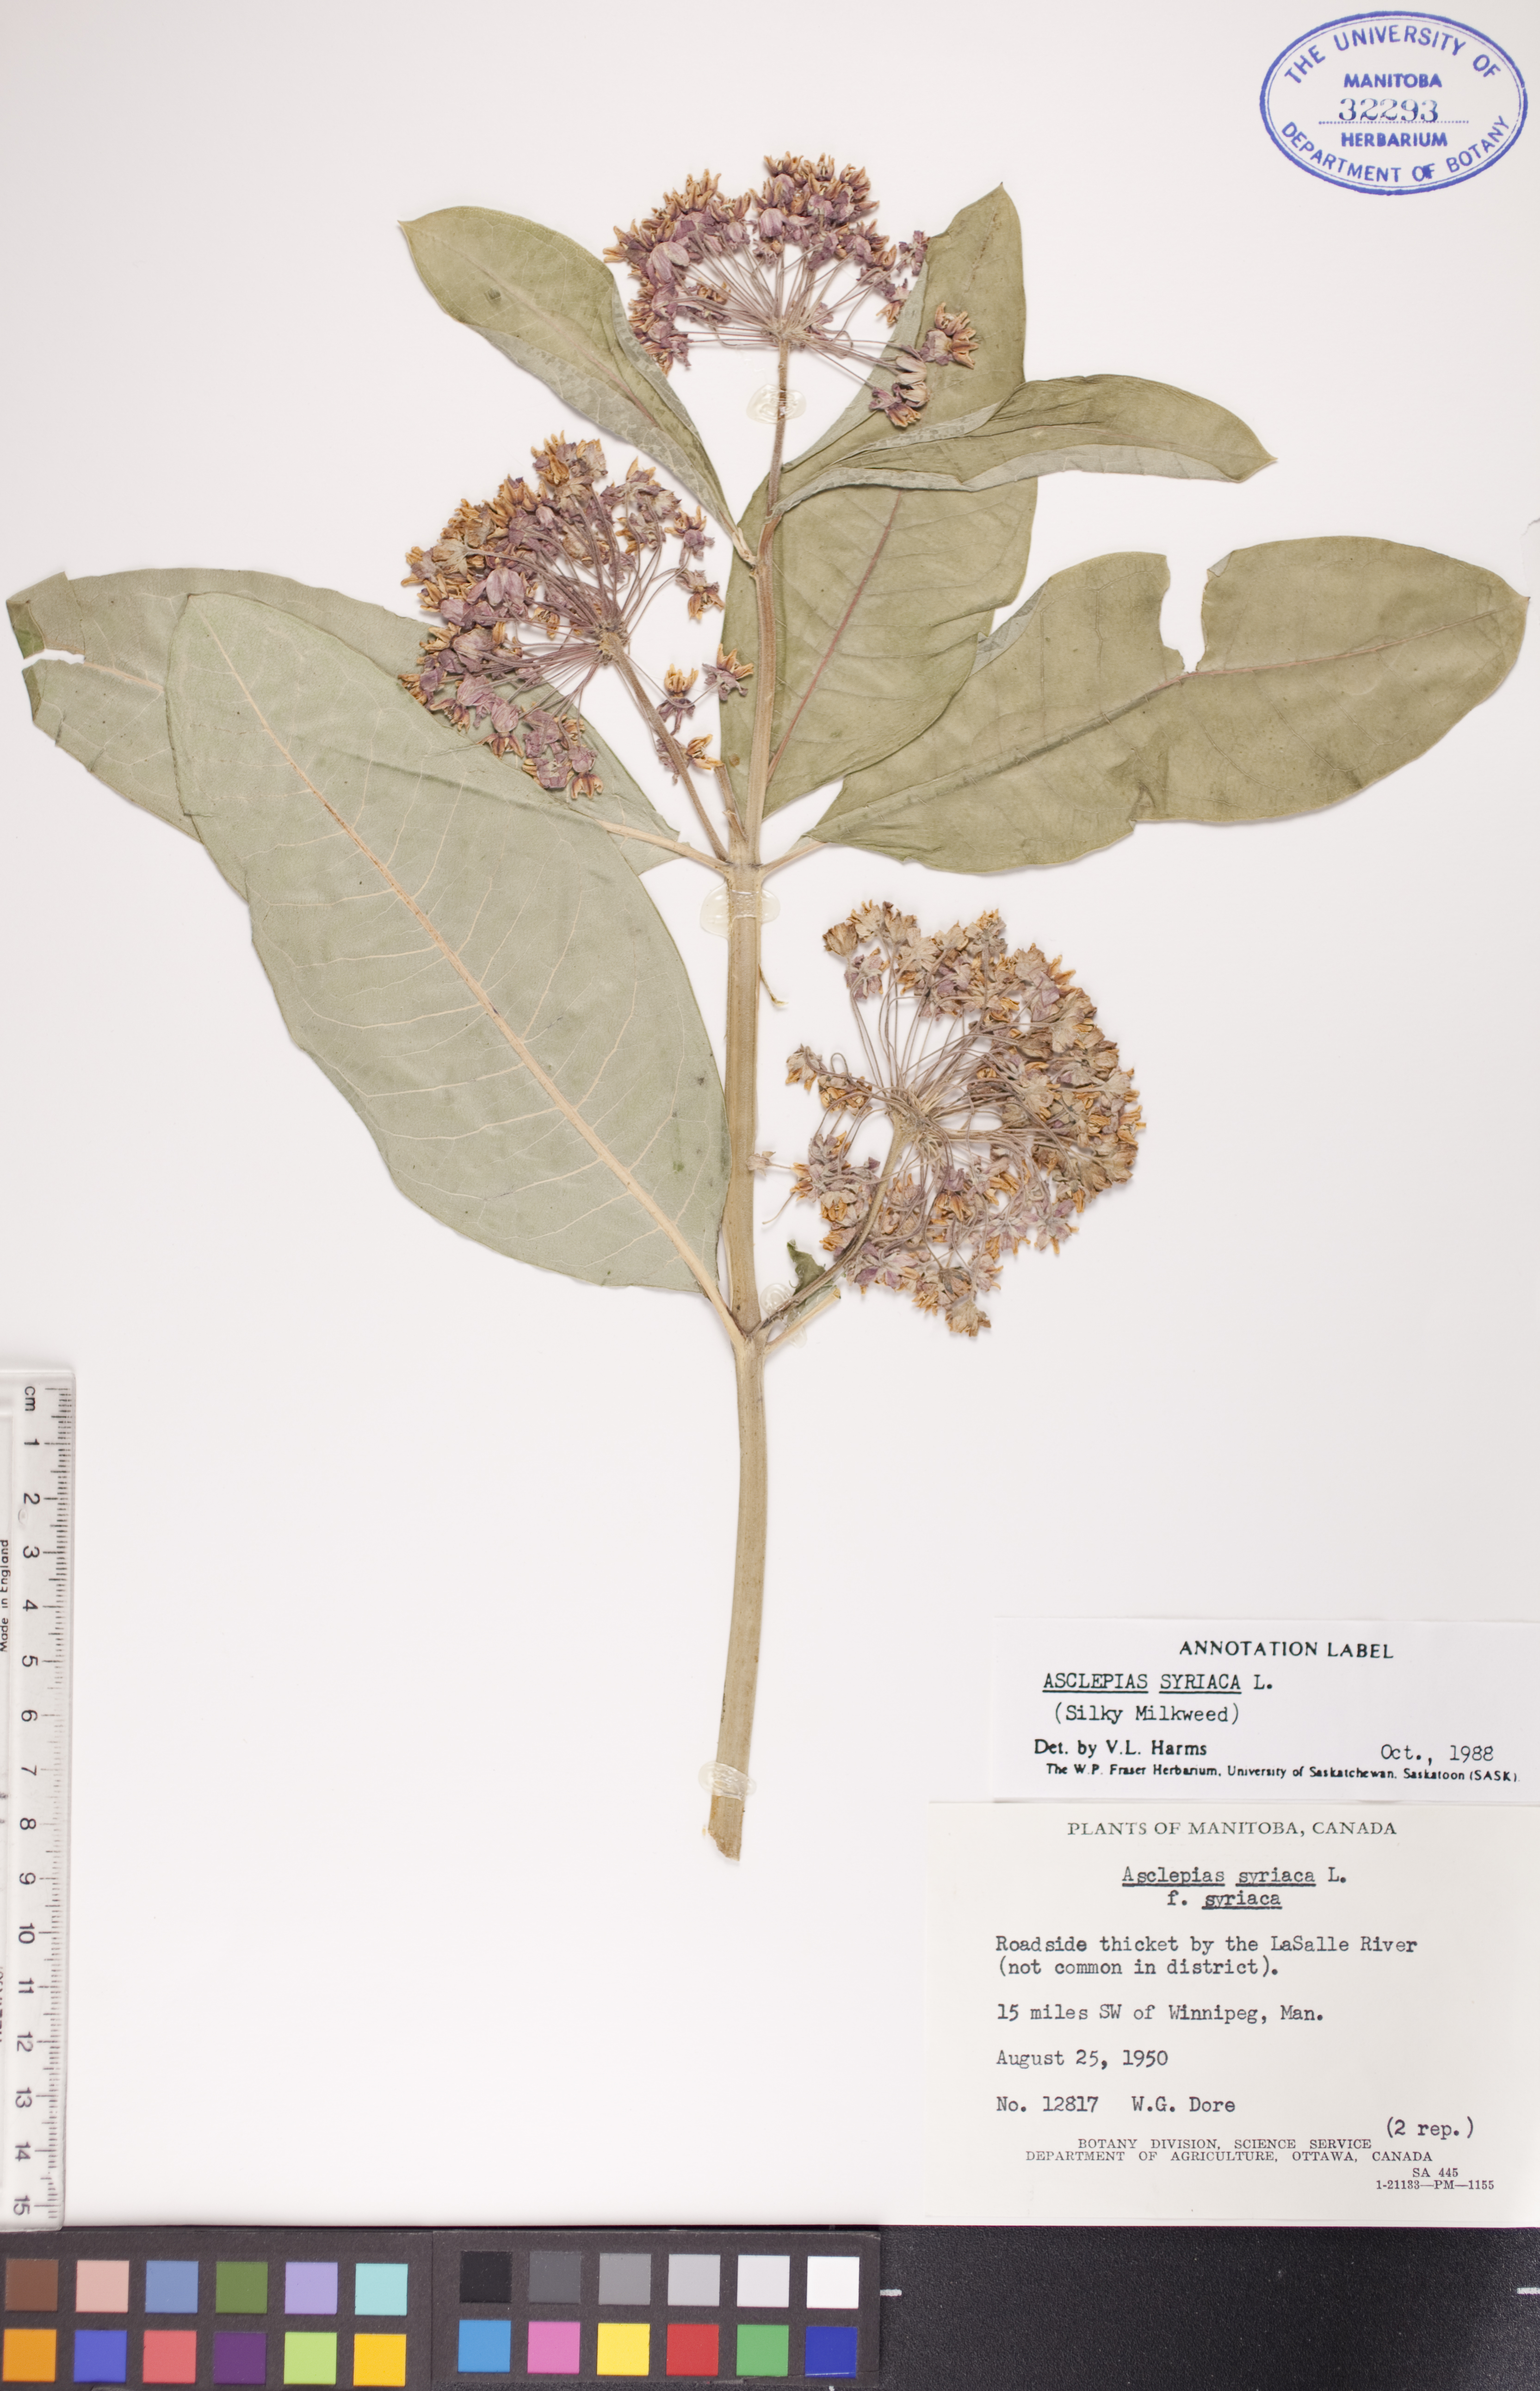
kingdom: Plantae
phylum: Tracheophyta
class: Magnoliopsida
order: Gentianales
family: Apocynaceae
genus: Asclepias
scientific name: Asclepias syriaca
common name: Common milkweed
